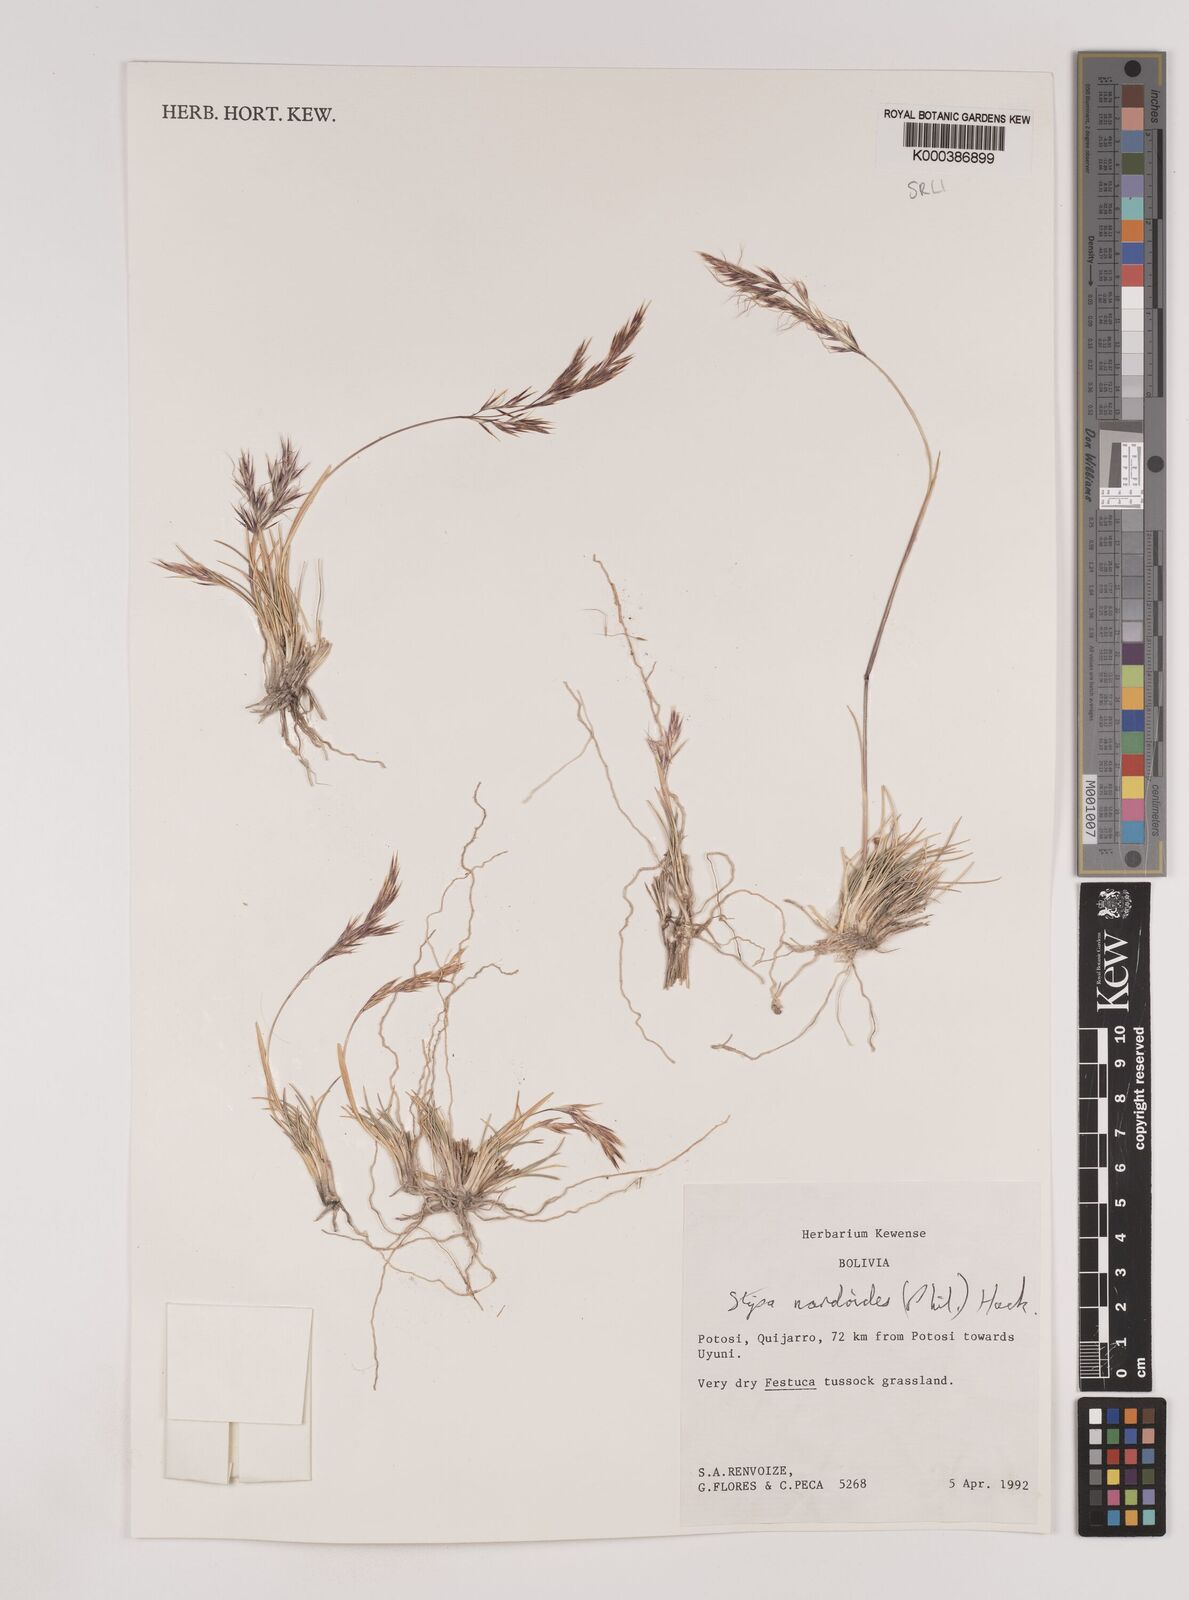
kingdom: Plantae
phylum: Tracheophyta
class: Liliopsida
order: Poales
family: Poaceae
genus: Nassella
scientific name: Nassella nardoides
